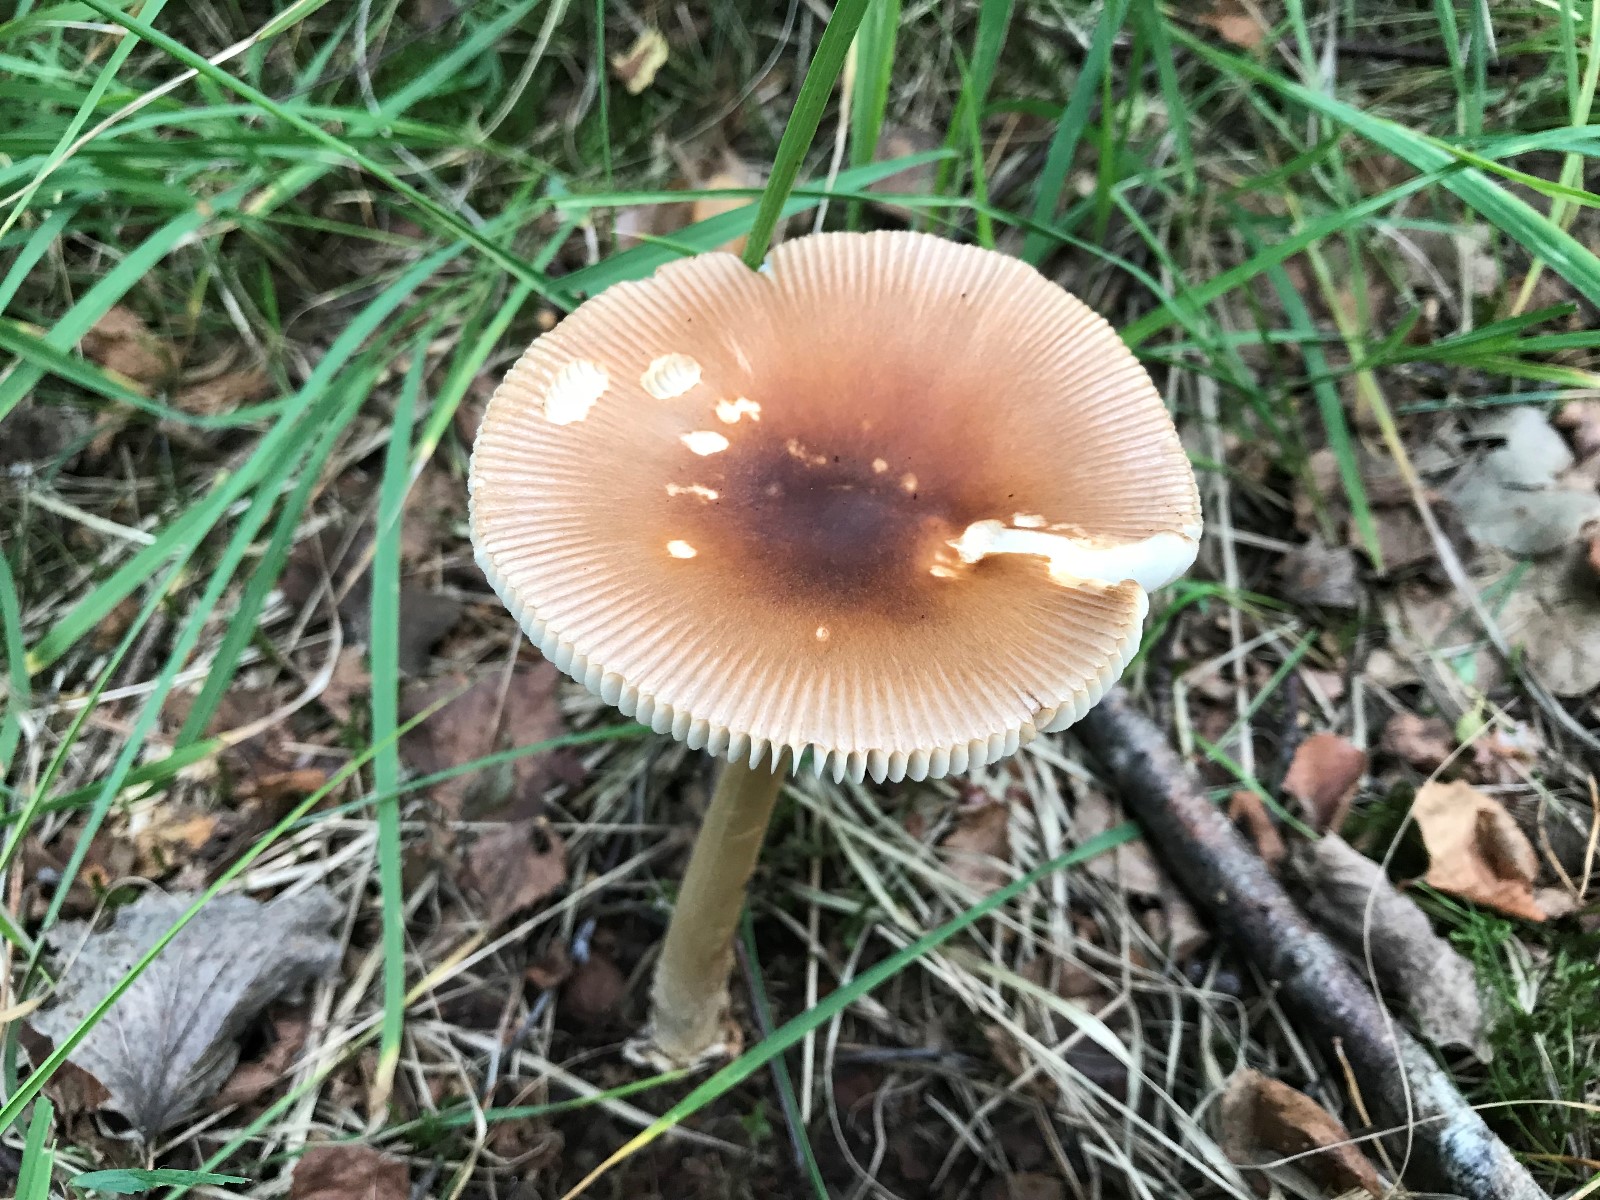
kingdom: Fungi
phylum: Basidiomycota
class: Agaricomycetes
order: Agaricales
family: Amanitaceae
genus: Amanita
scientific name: Amanita fulva
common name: brun kam-fluesvamp
